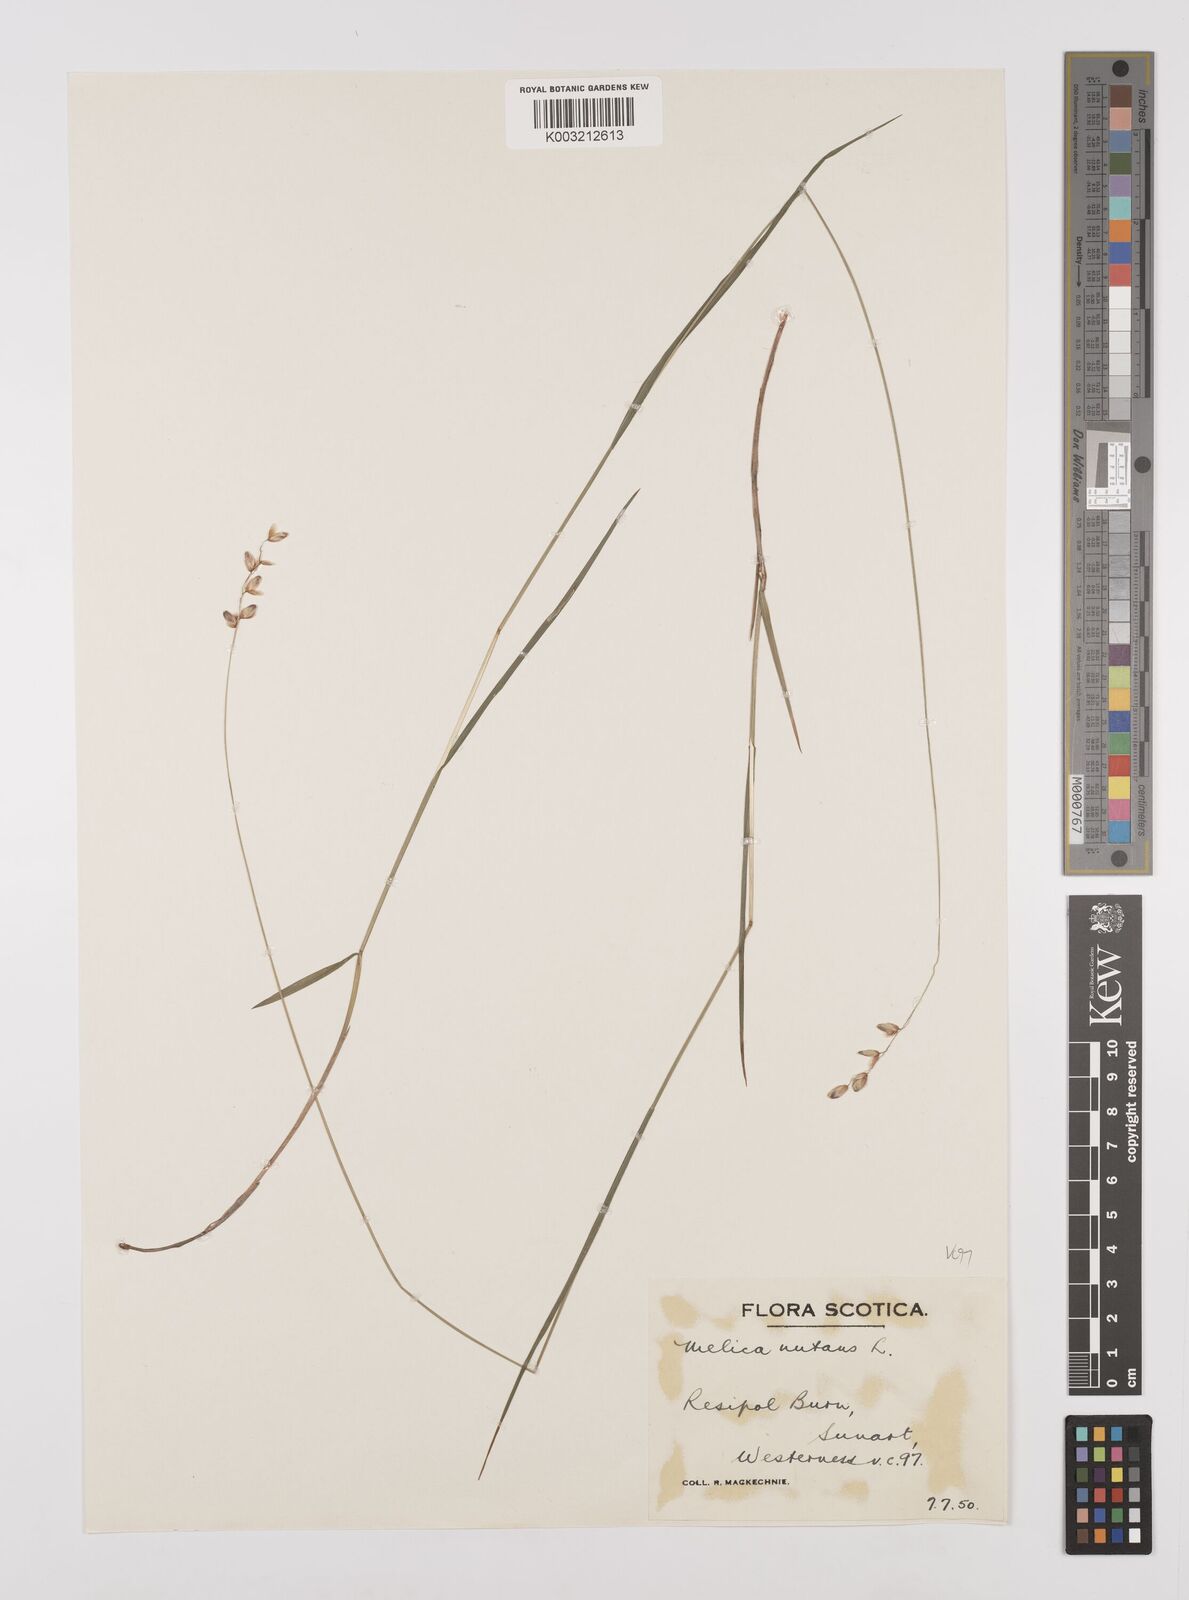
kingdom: Plantae
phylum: Tracheophyta
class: Liliopsida
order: Poales
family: Poaceae
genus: Melica
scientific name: Melica
